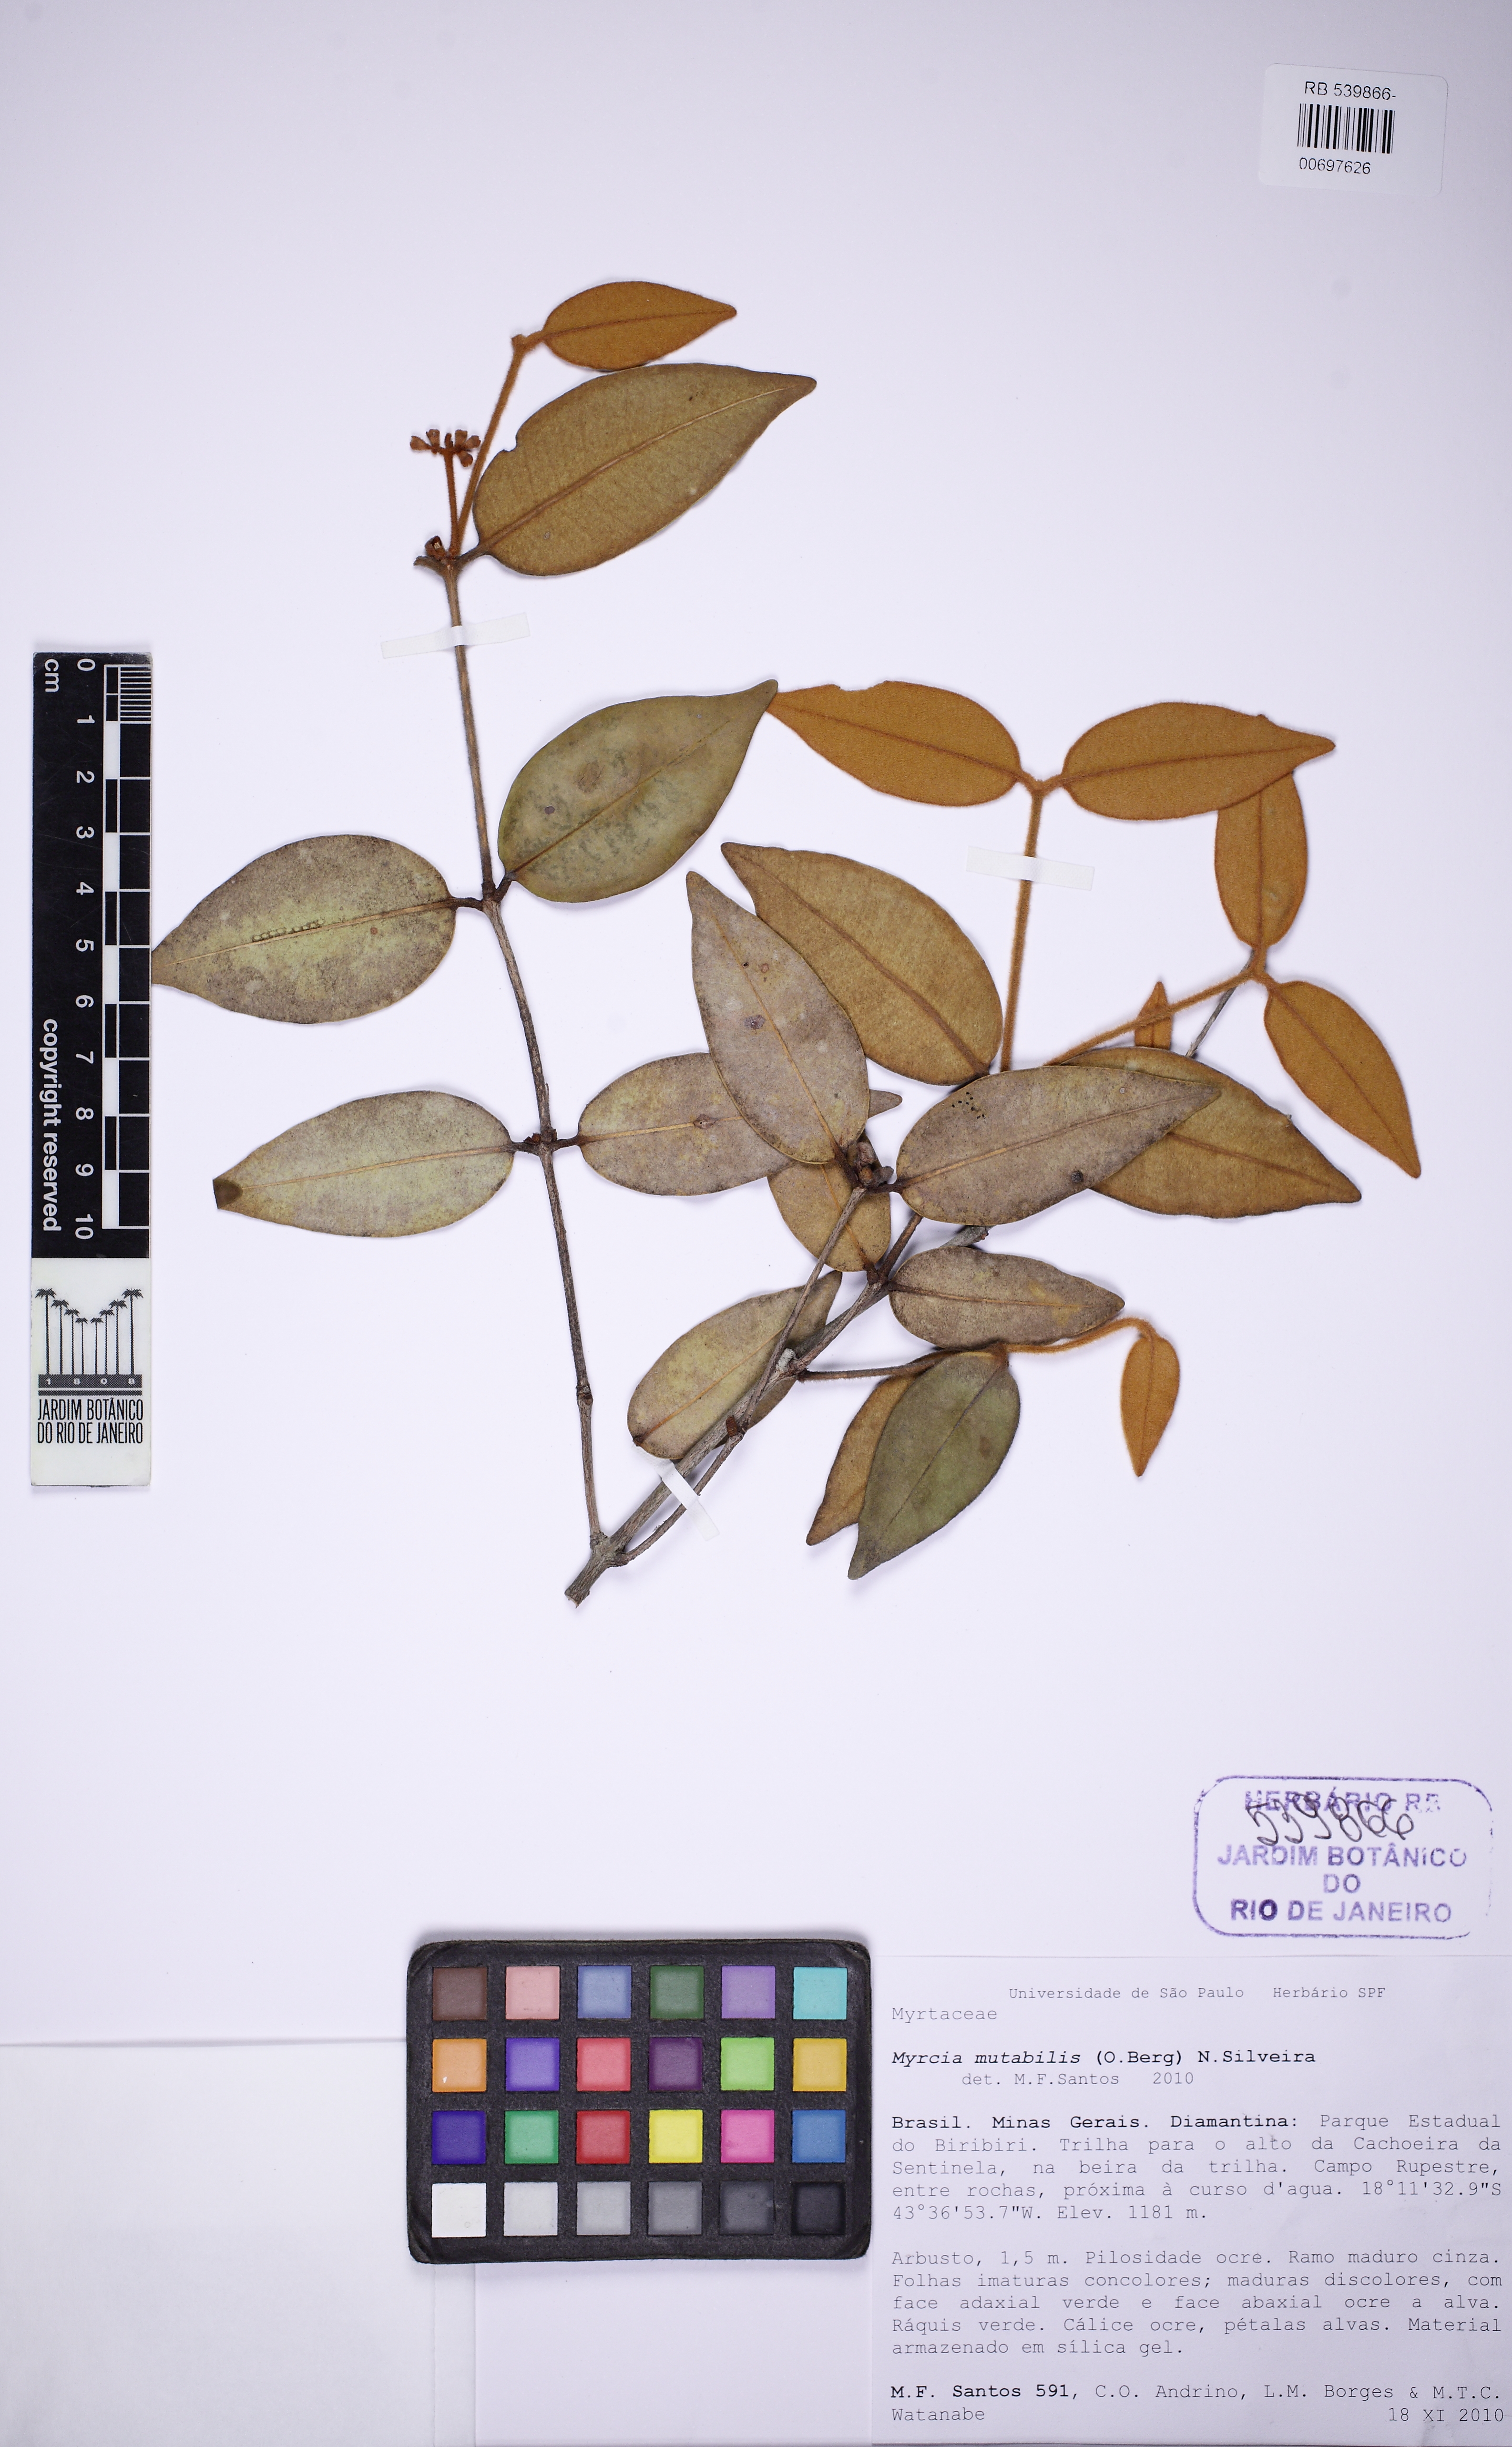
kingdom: Plantae
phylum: Tracheophyta
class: Magnoliopsida
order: Myrtales
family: Myrtaceae
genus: Myrcia
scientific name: Myrcia mutabilis
